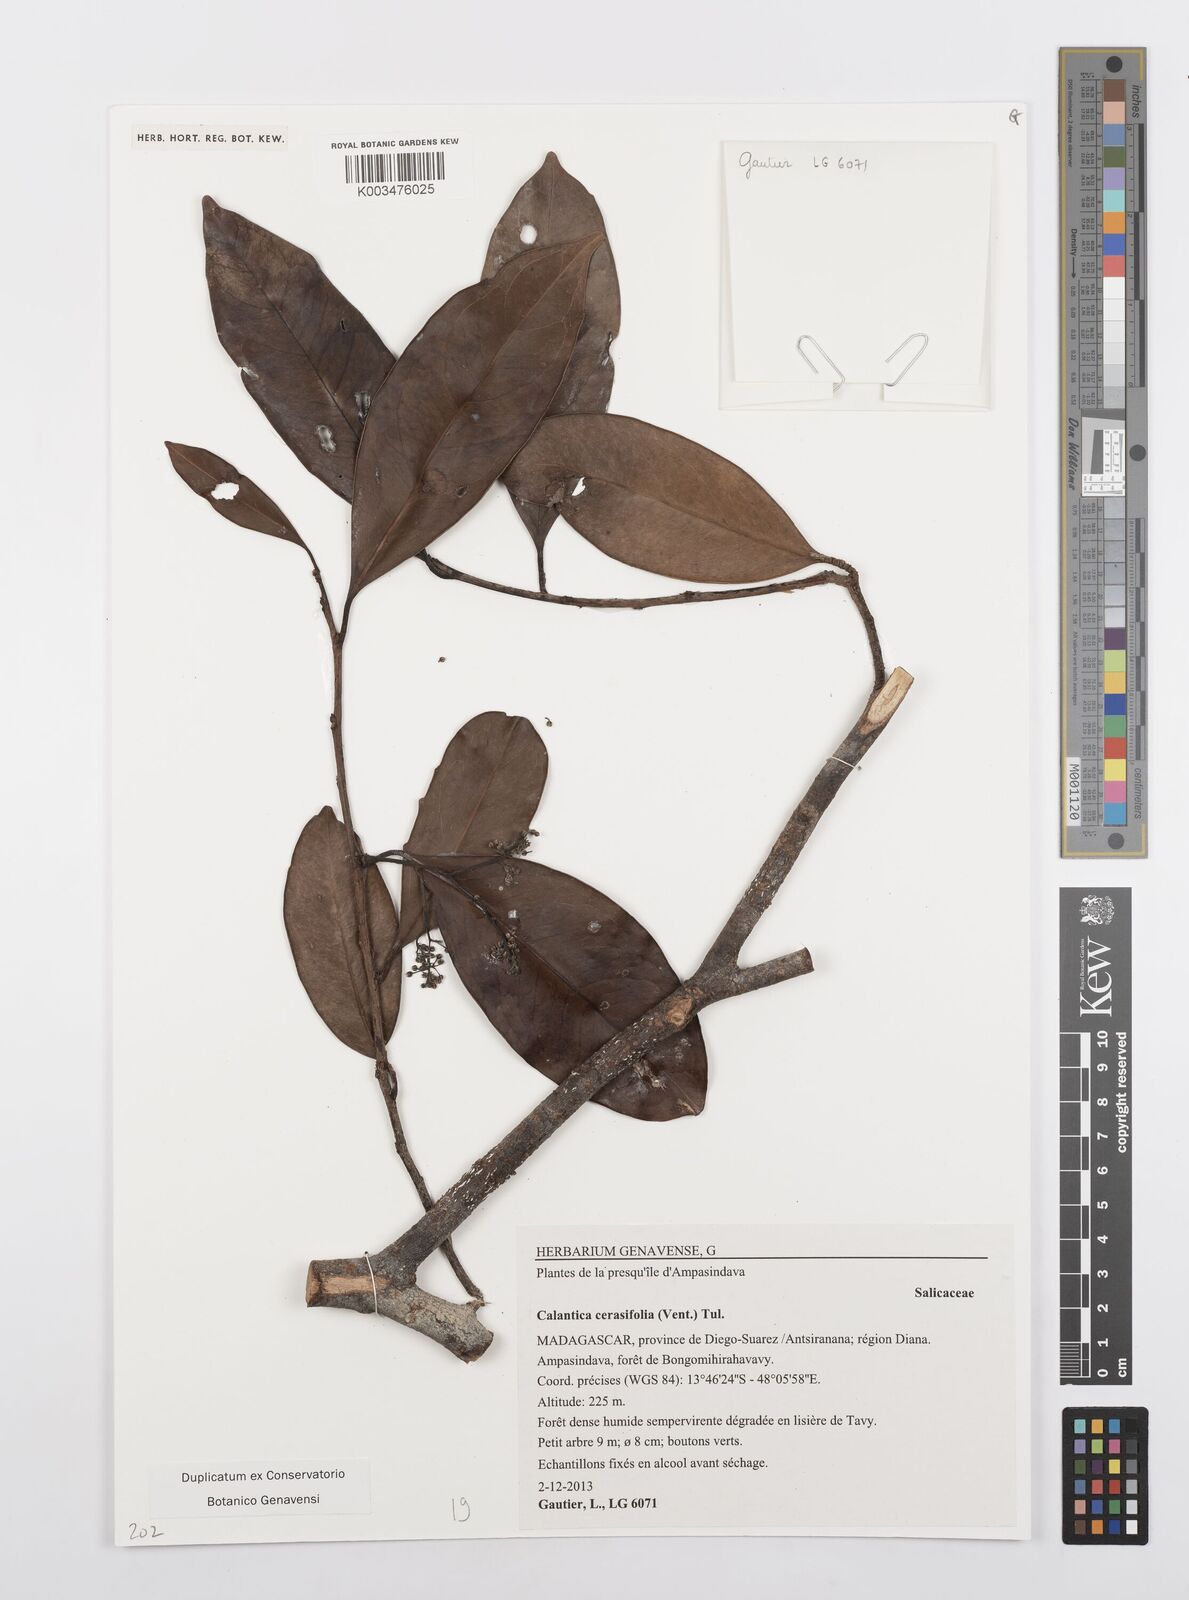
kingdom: Plantae
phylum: Tracheophyta
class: Magnoliopsida
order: Malpighiales
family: Salicaceae
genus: Calantica
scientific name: Calantica cerasifolia
